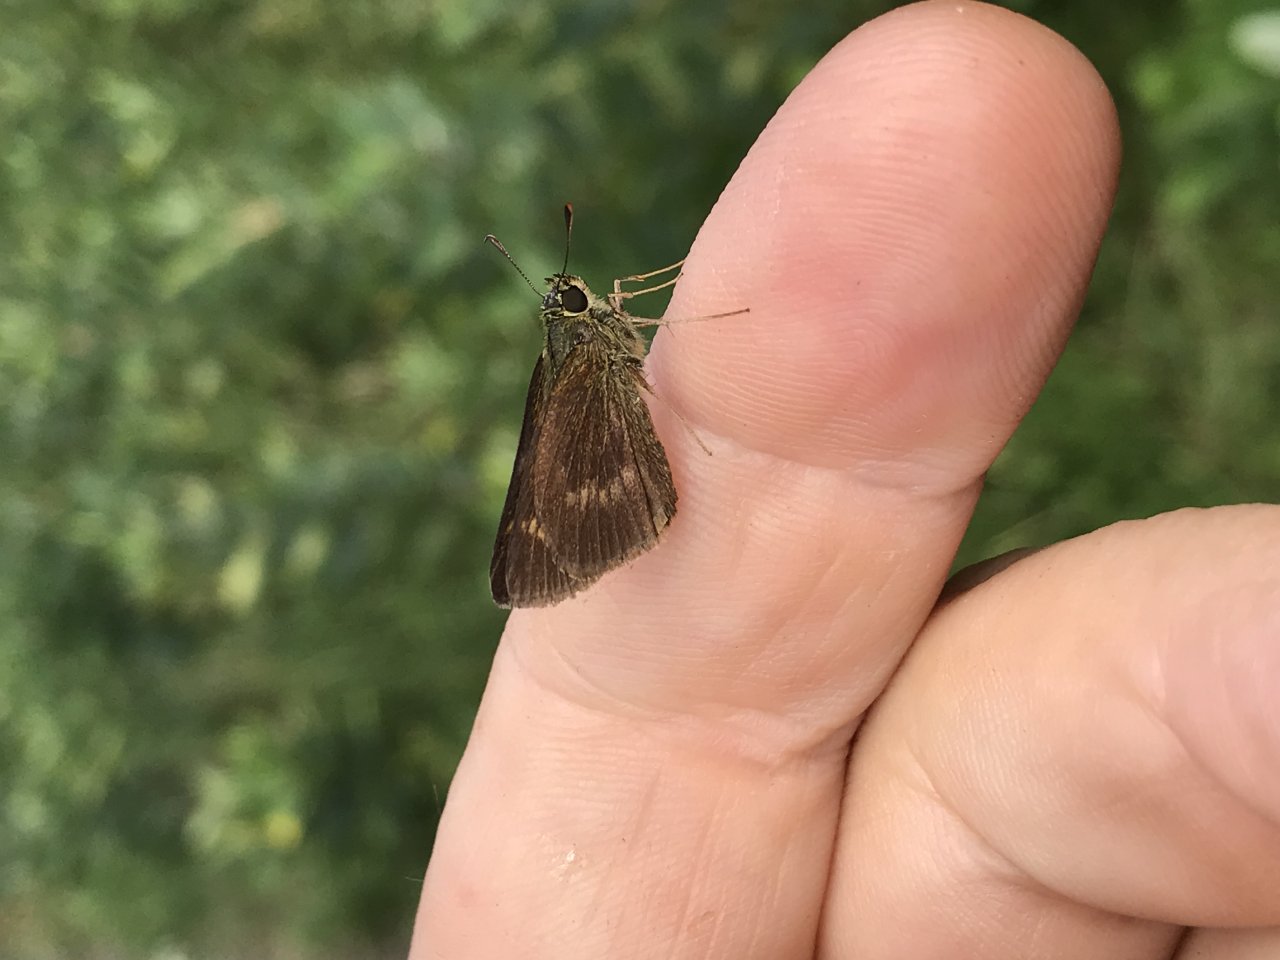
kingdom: Animalia
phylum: Arthropoda
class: Insecta
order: Lepidoptera
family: Hesperiidae
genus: Polites
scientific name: Polites egeremet
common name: Northern Broken-Dash
